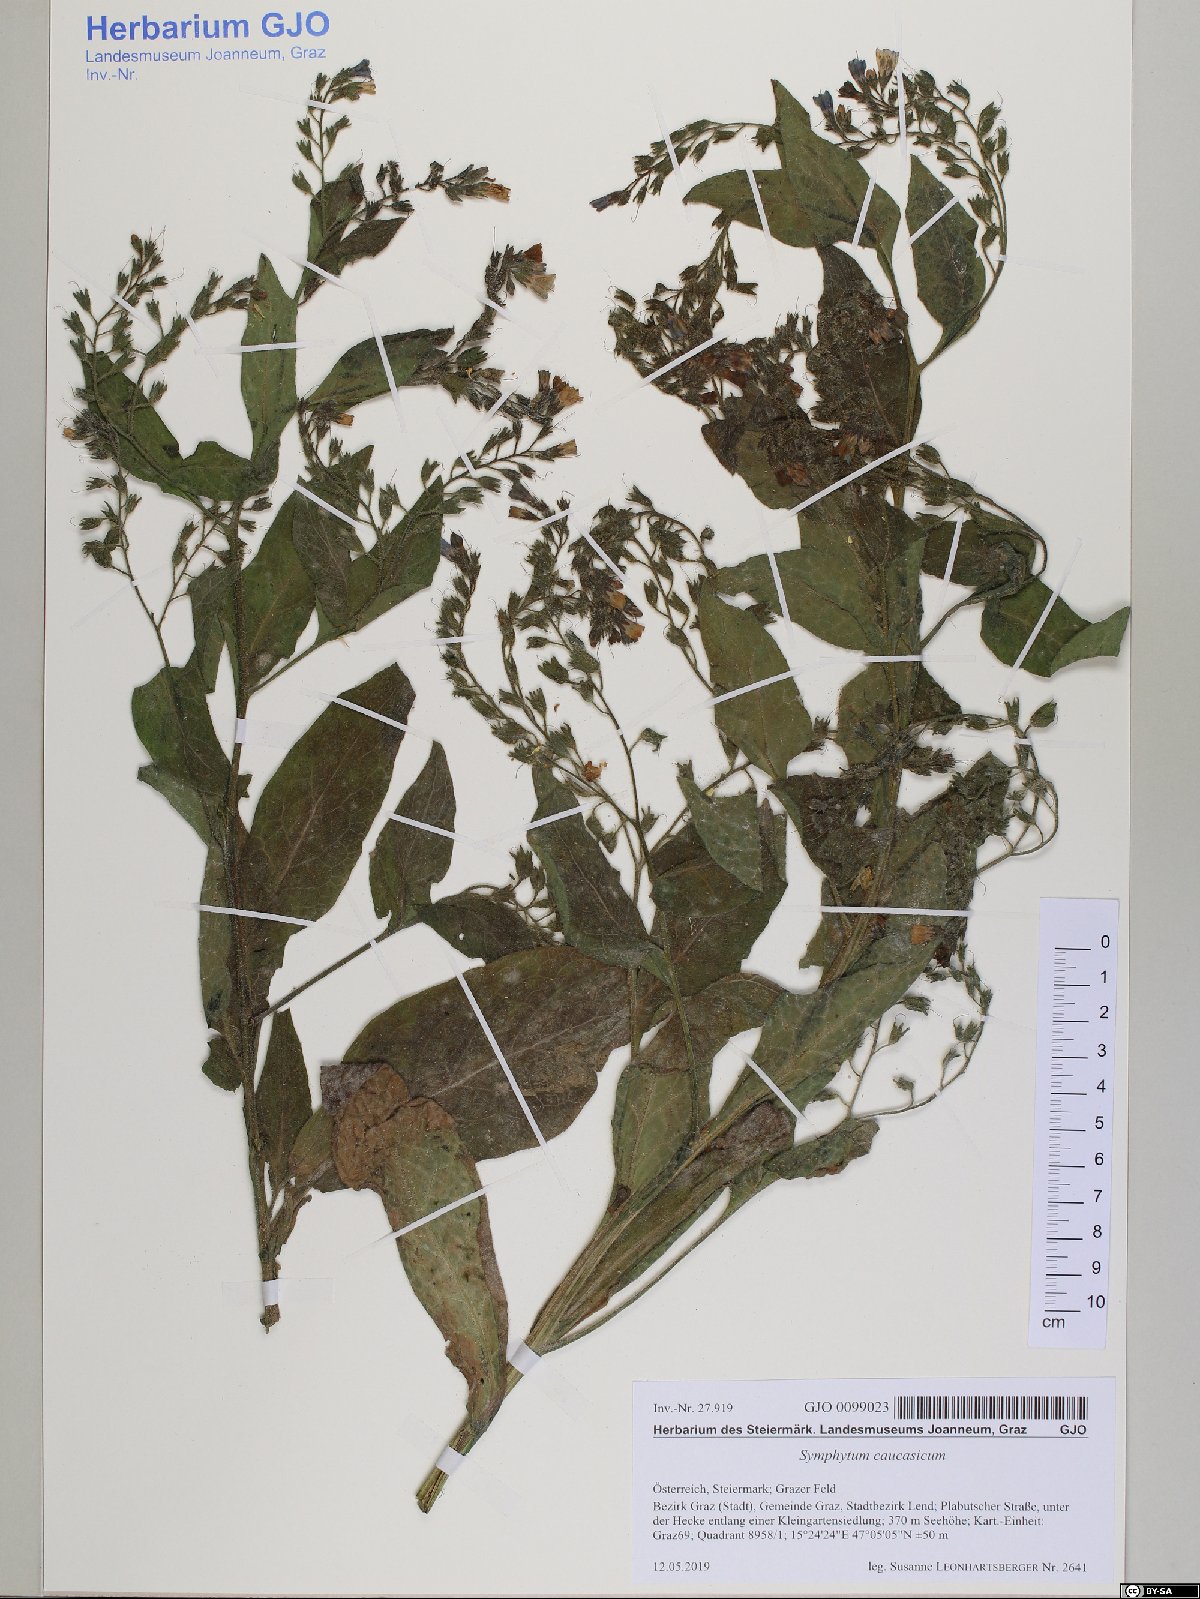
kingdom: Plantae
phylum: Tracheophyta
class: Magnoliopsida
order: Boraginales
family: Boraginaceae
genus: Symphytum
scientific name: Symphytum caucasicum
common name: Caucasian comfrey
